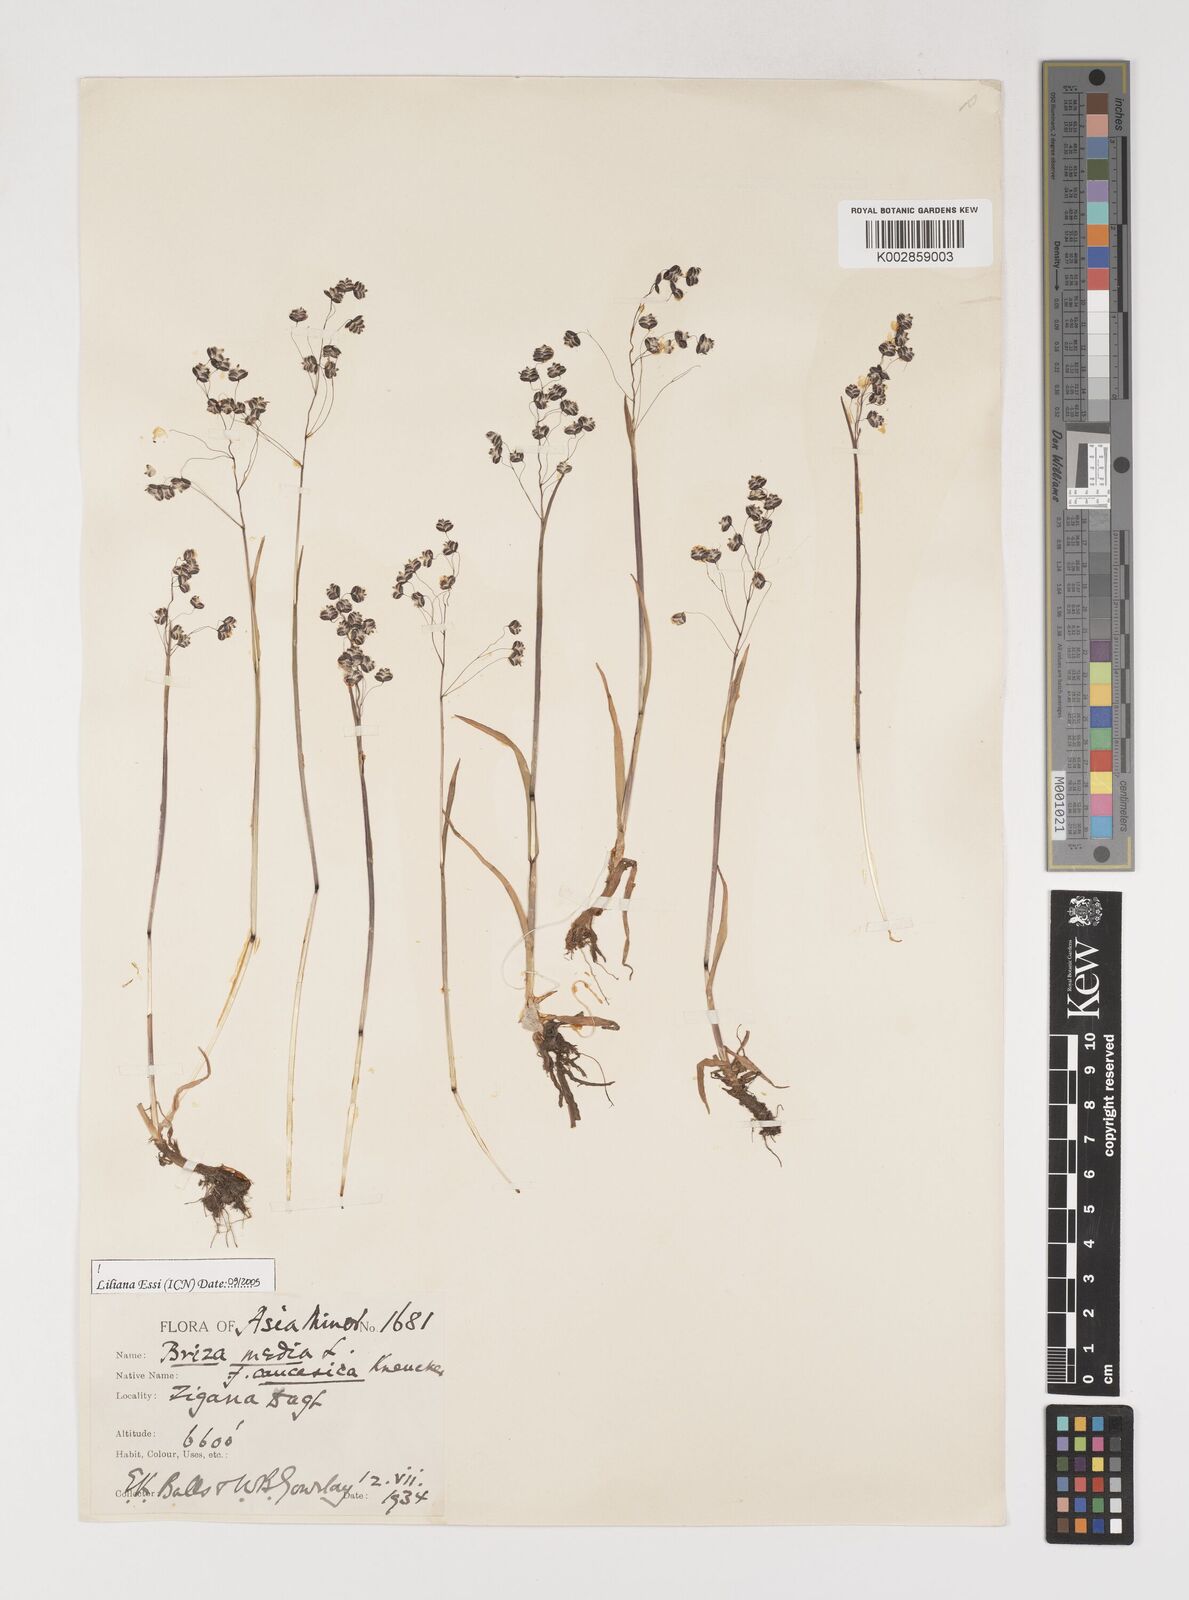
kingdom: Plantae
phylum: Tracheophyta
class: Liliopsida
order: Poales
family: Poaceae
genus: Briza
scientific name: Briza marcowiczii
